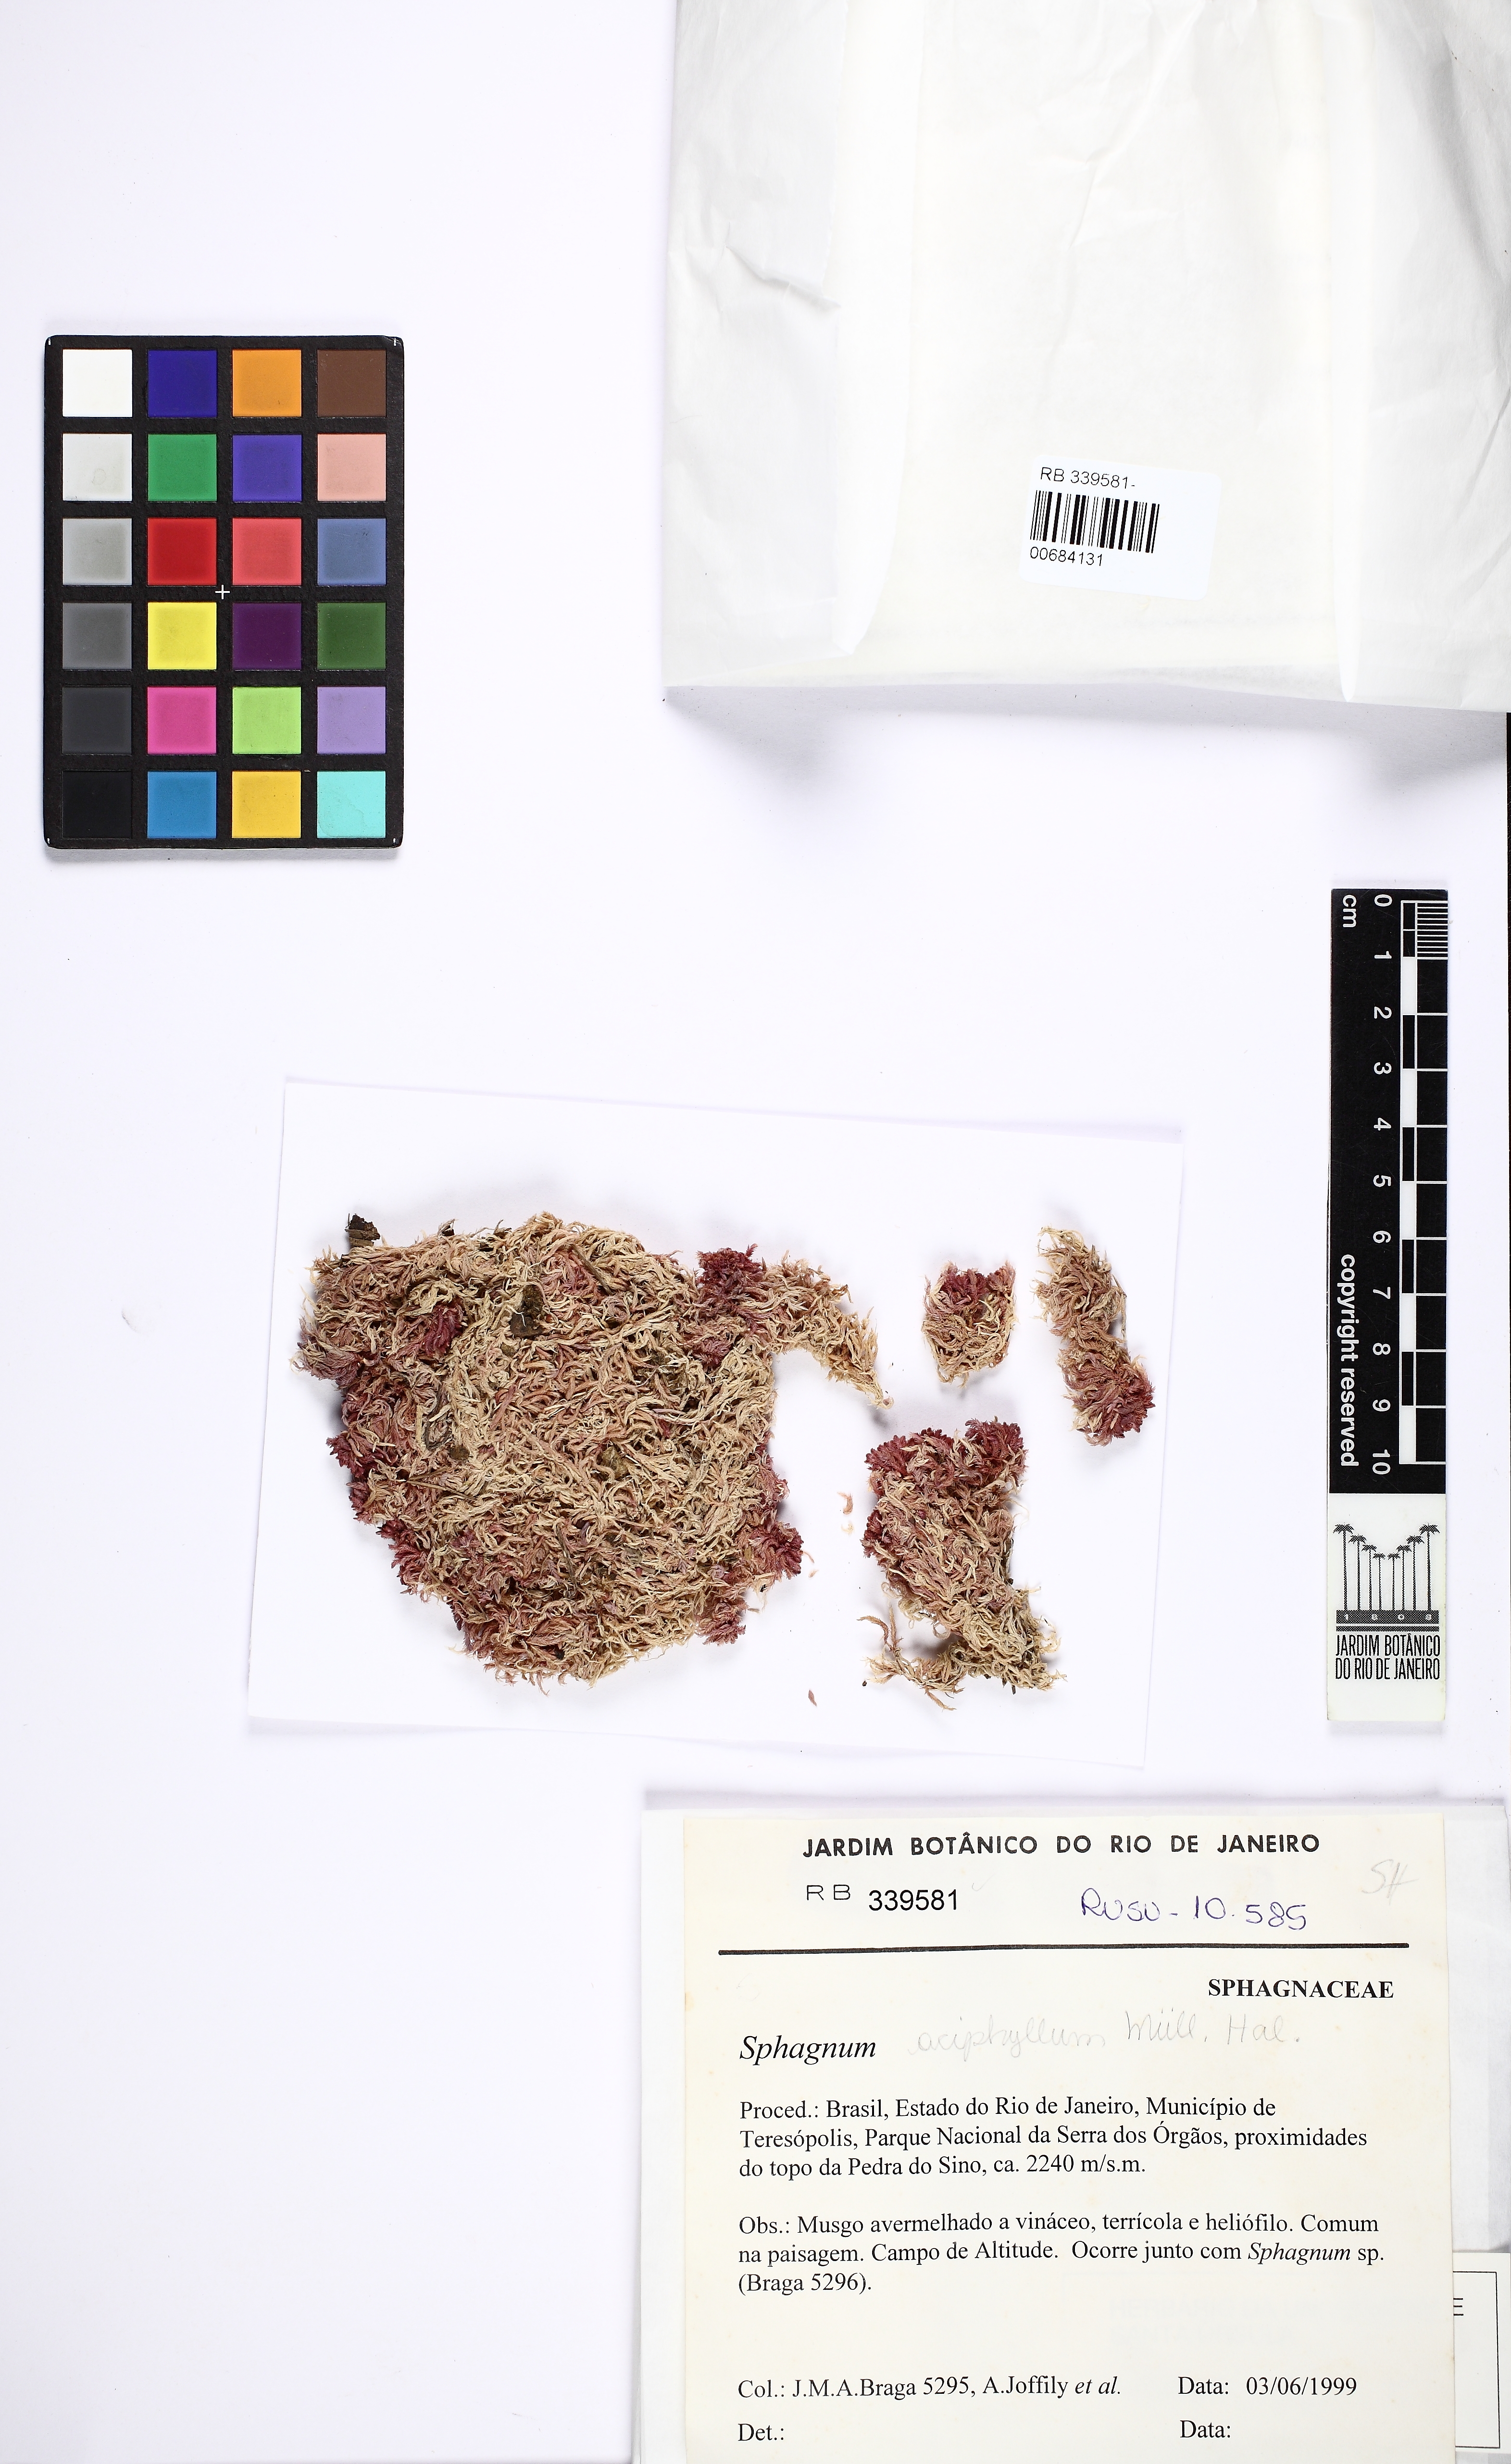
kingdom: Plantae
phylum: Bryophyta
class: Sphagnopsida
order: Sphagnales
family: Sphagnaceae
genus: Sphagnum
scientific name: Sphagnum aciphyllum
